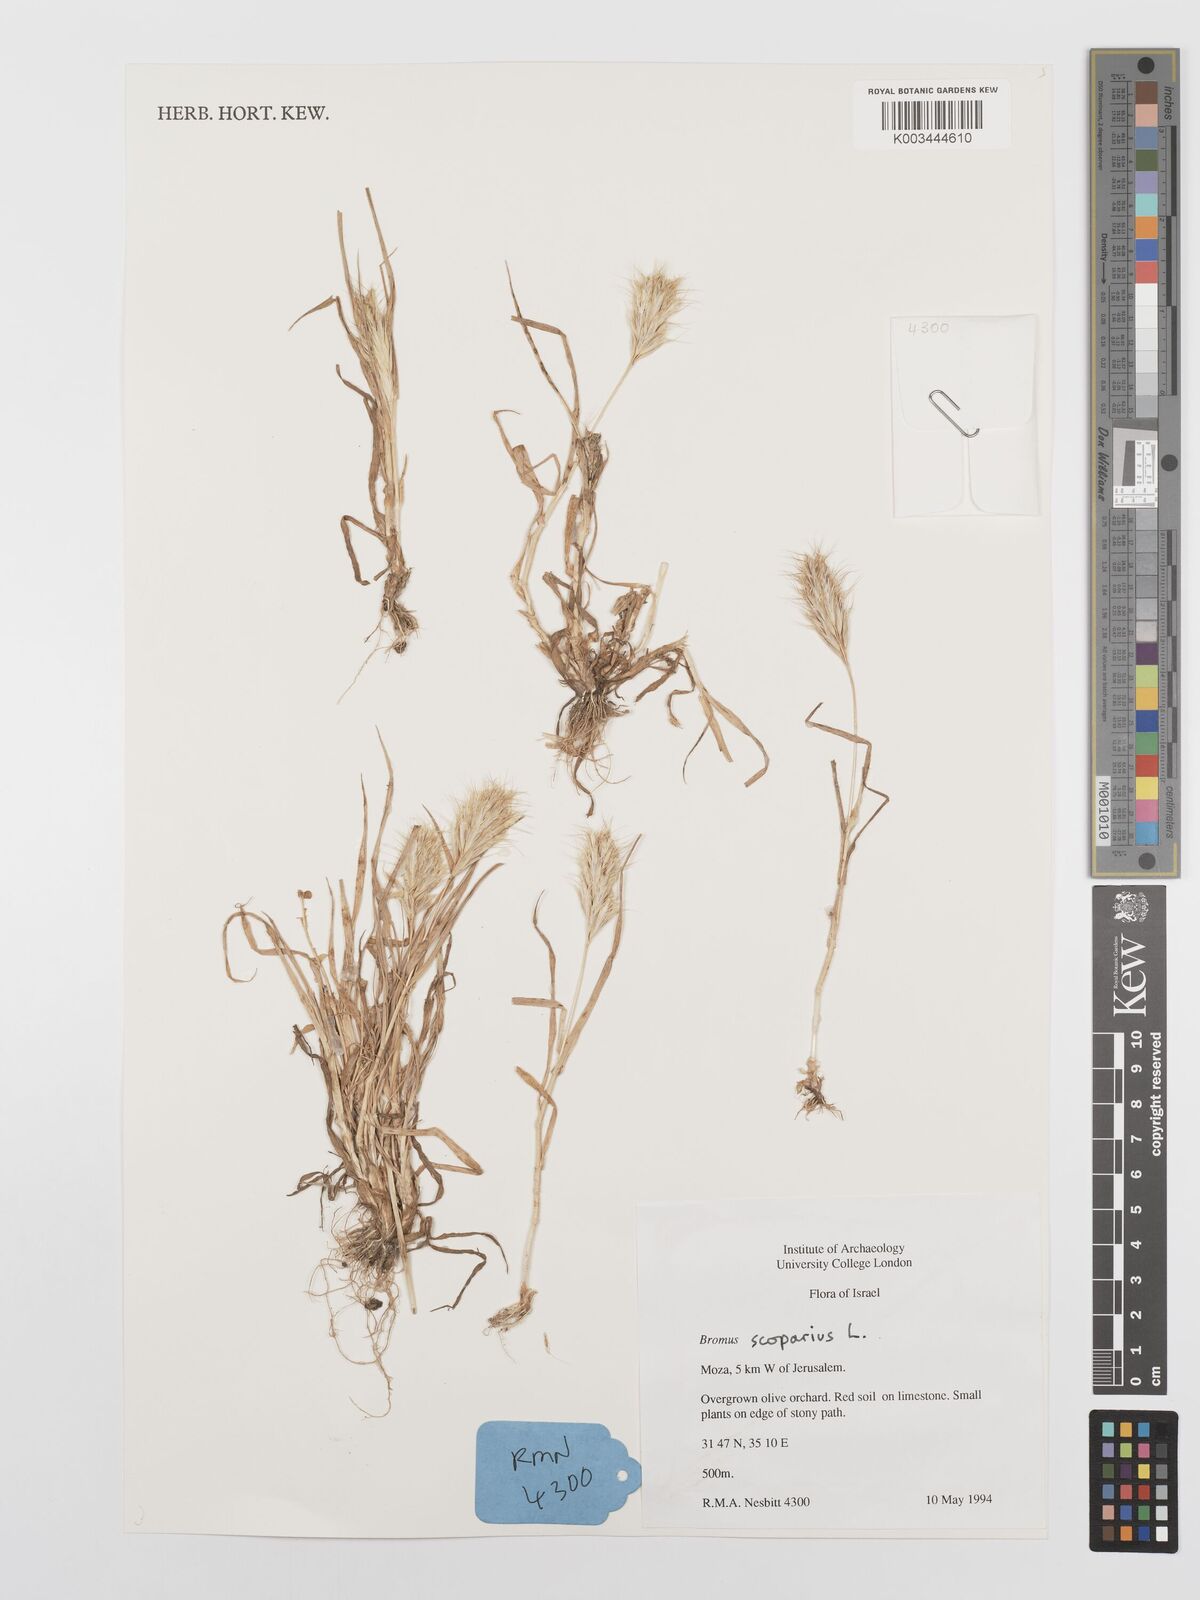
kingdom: Plantae
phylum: Tracheophyta
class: Liliopsida
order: Poales
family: Poaceae
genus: Bromus
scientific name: Bromus scoparius
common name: Broom brome
